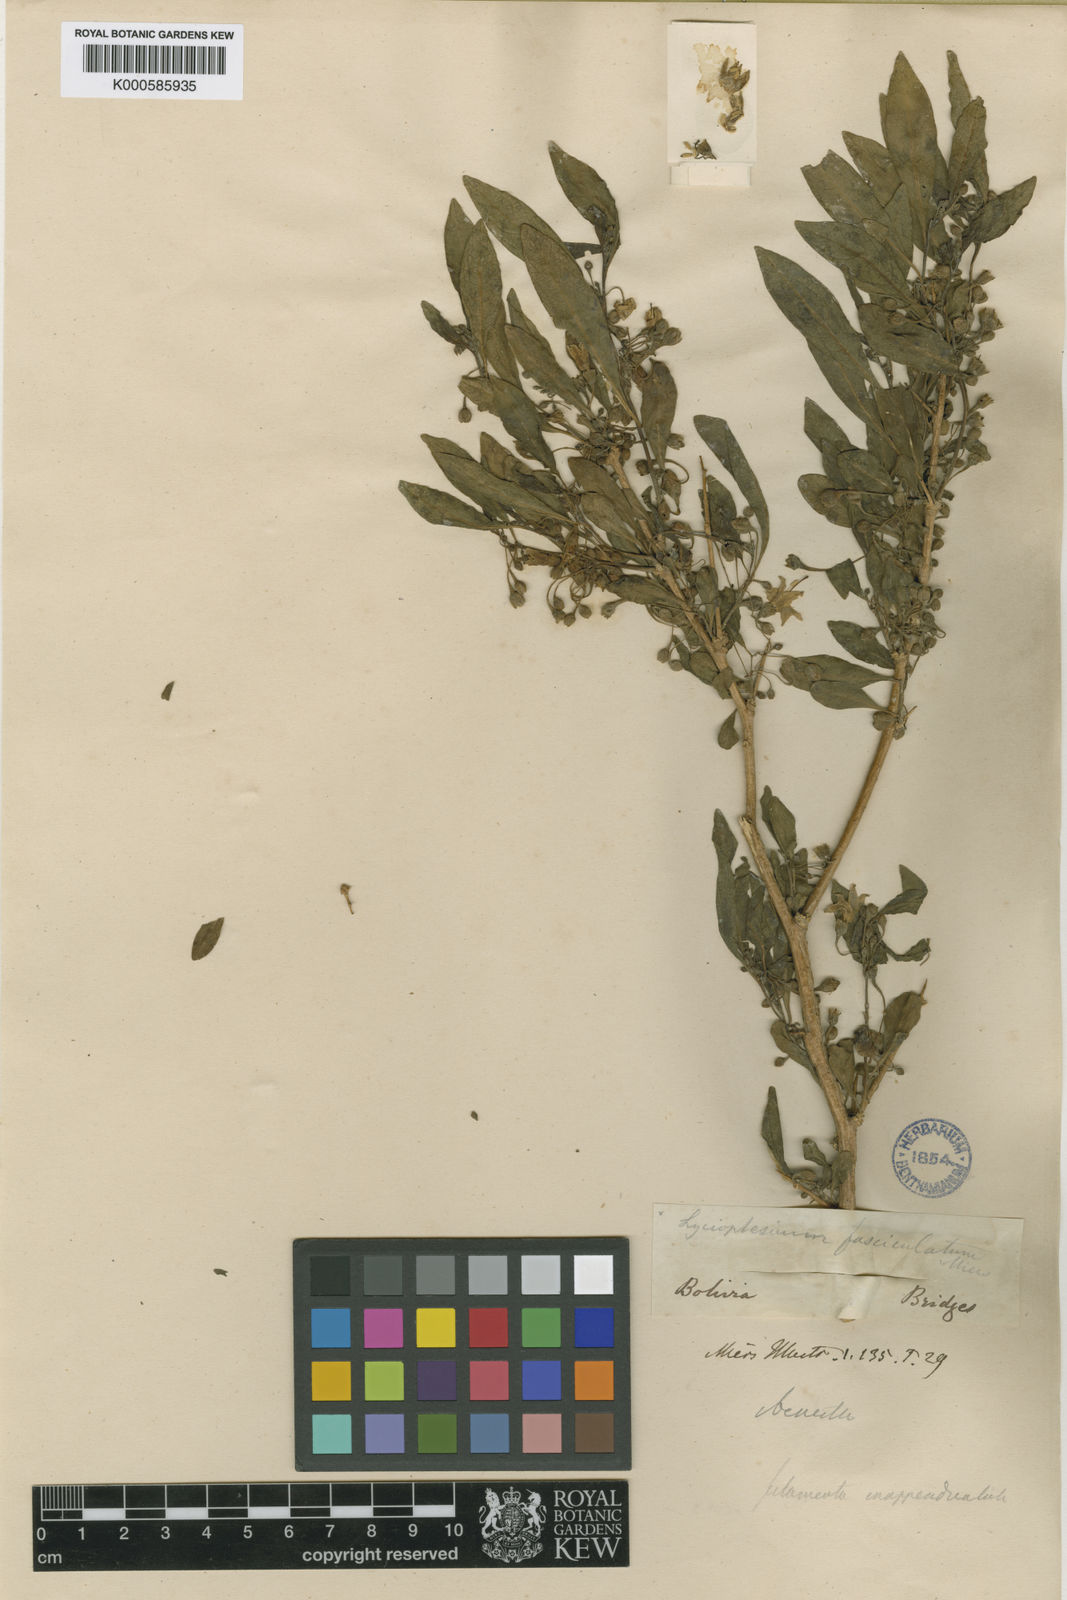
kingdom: Plantae
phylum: Tracheophyta
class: Magnoliopsida
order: Solanales
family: Solanaceae
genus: Iochroma
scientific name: Iochroma Acnistus spec
